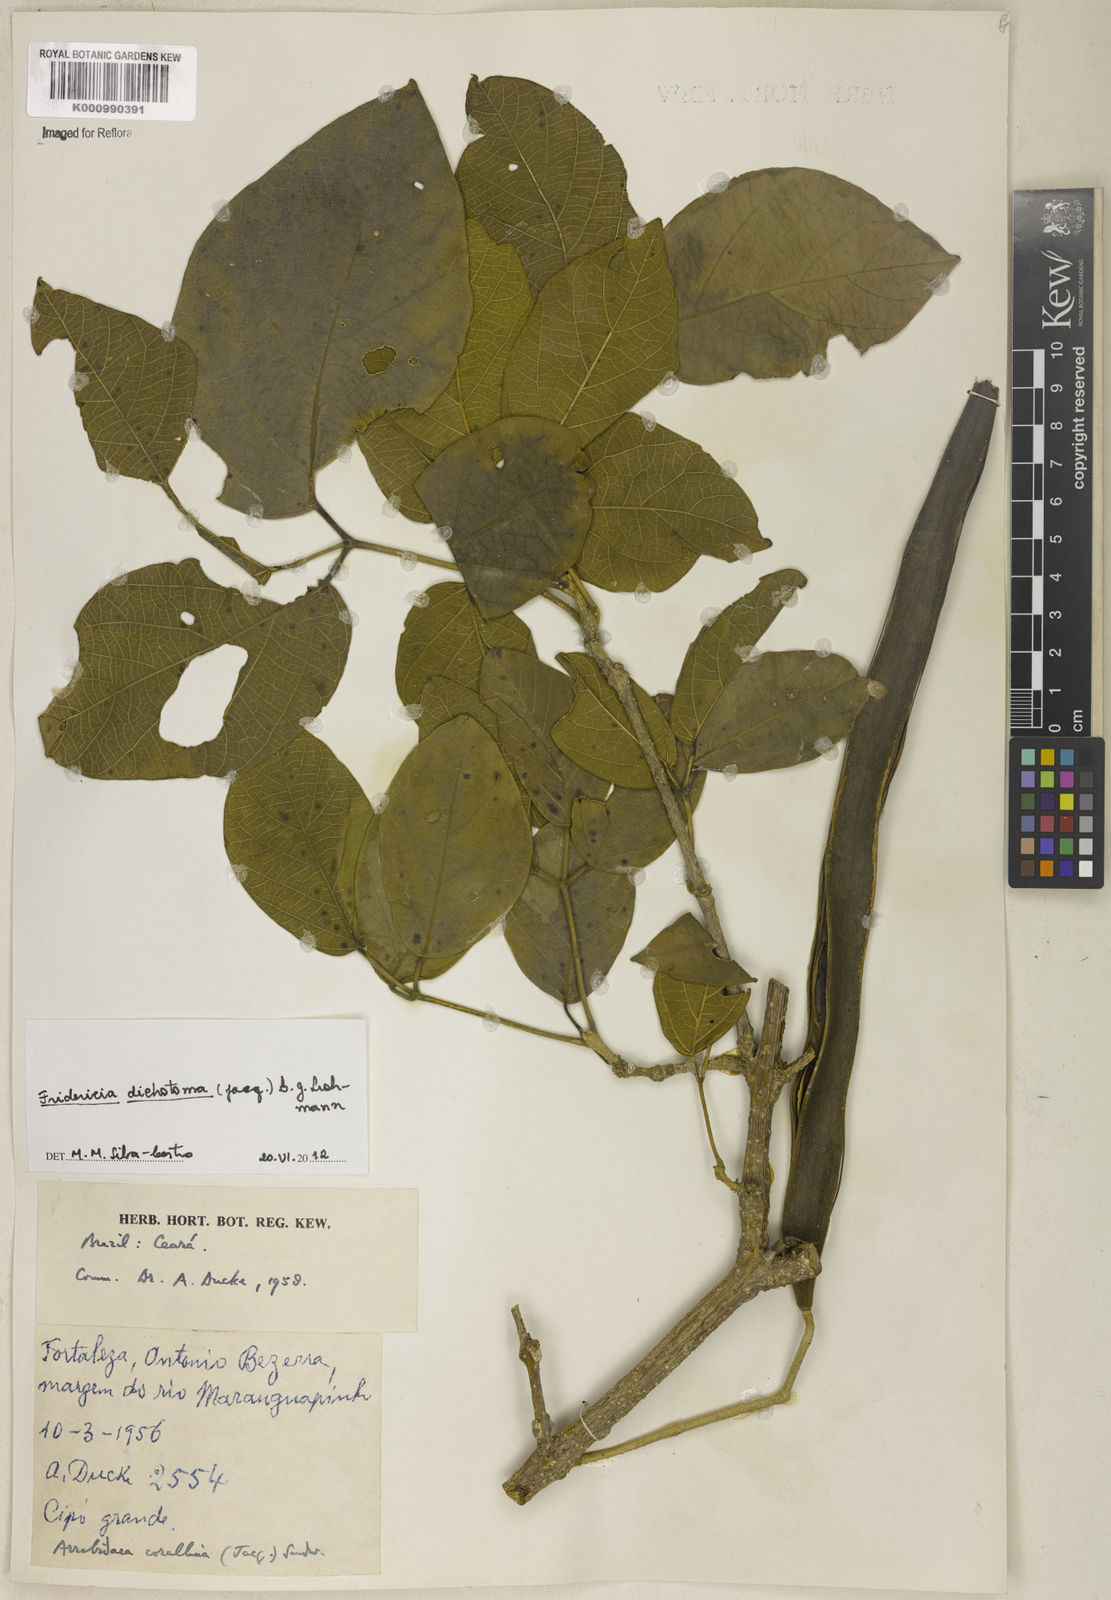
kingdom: Plantae
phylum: Tracheophyta
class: Magnoliopsida
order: Lamiales
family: Bignoniaceae
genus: Tanaecium
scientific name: Tanaecium dichotomum
